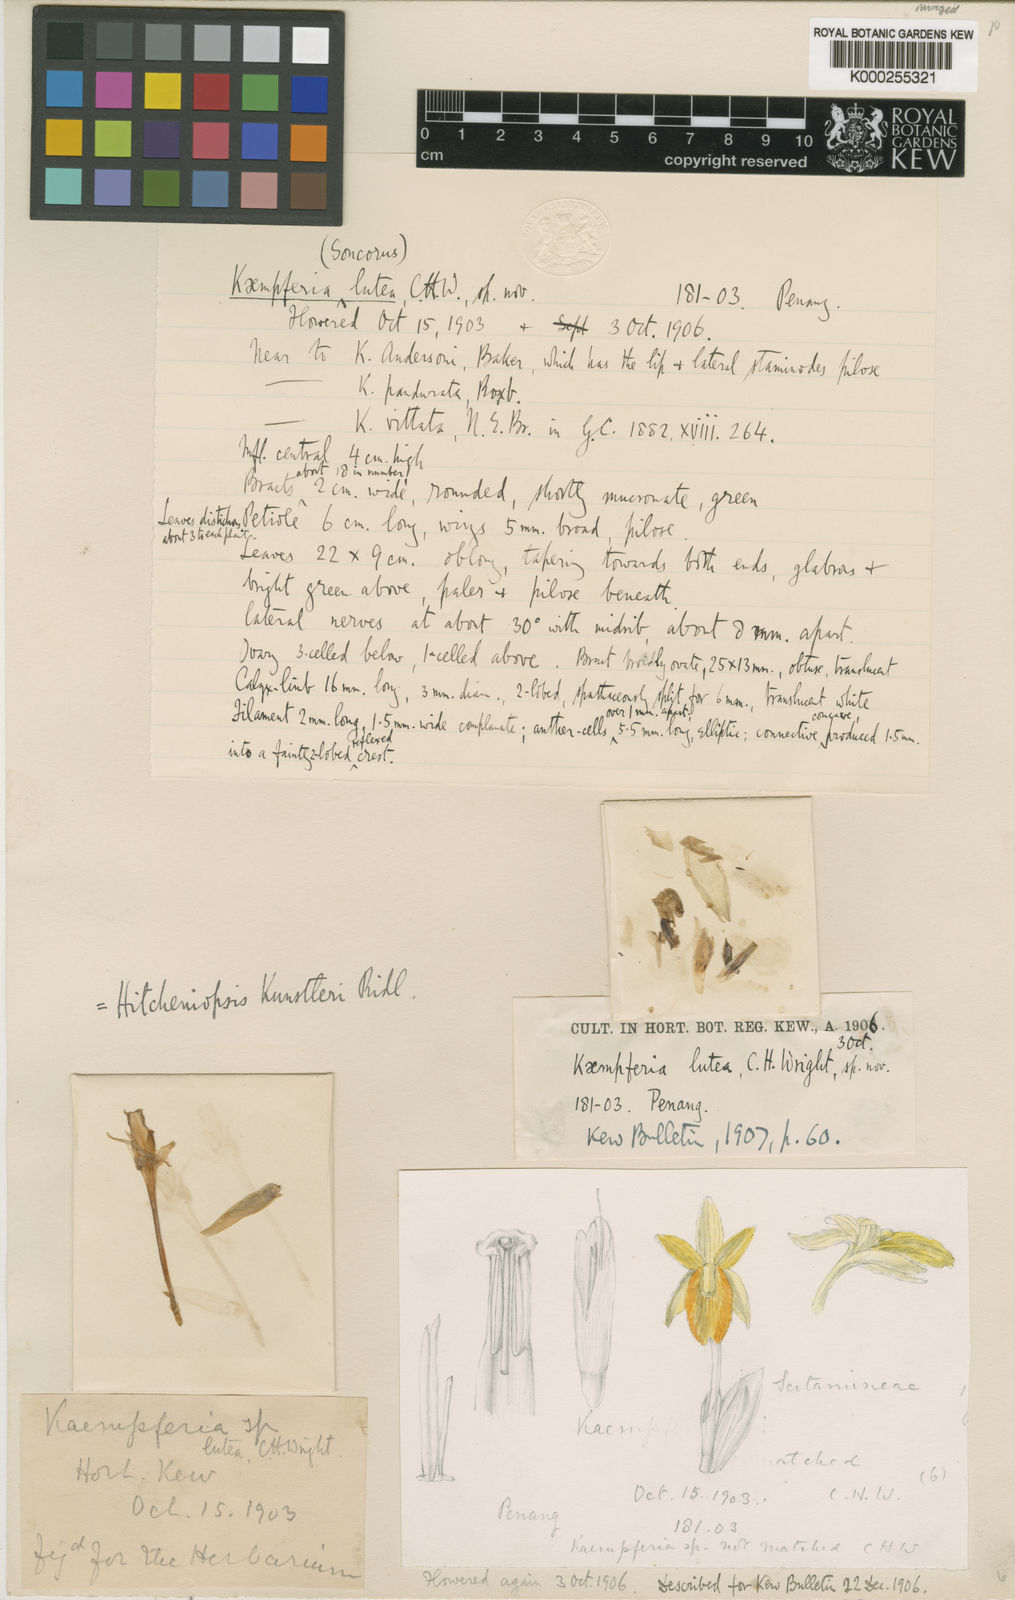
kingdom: Plantae
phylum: Tracheophyta
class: Liliopsida
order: Zingiberales
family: Zingiberaceae
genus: Scaphochlamys
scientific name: Scaphochlamys kunstleri
